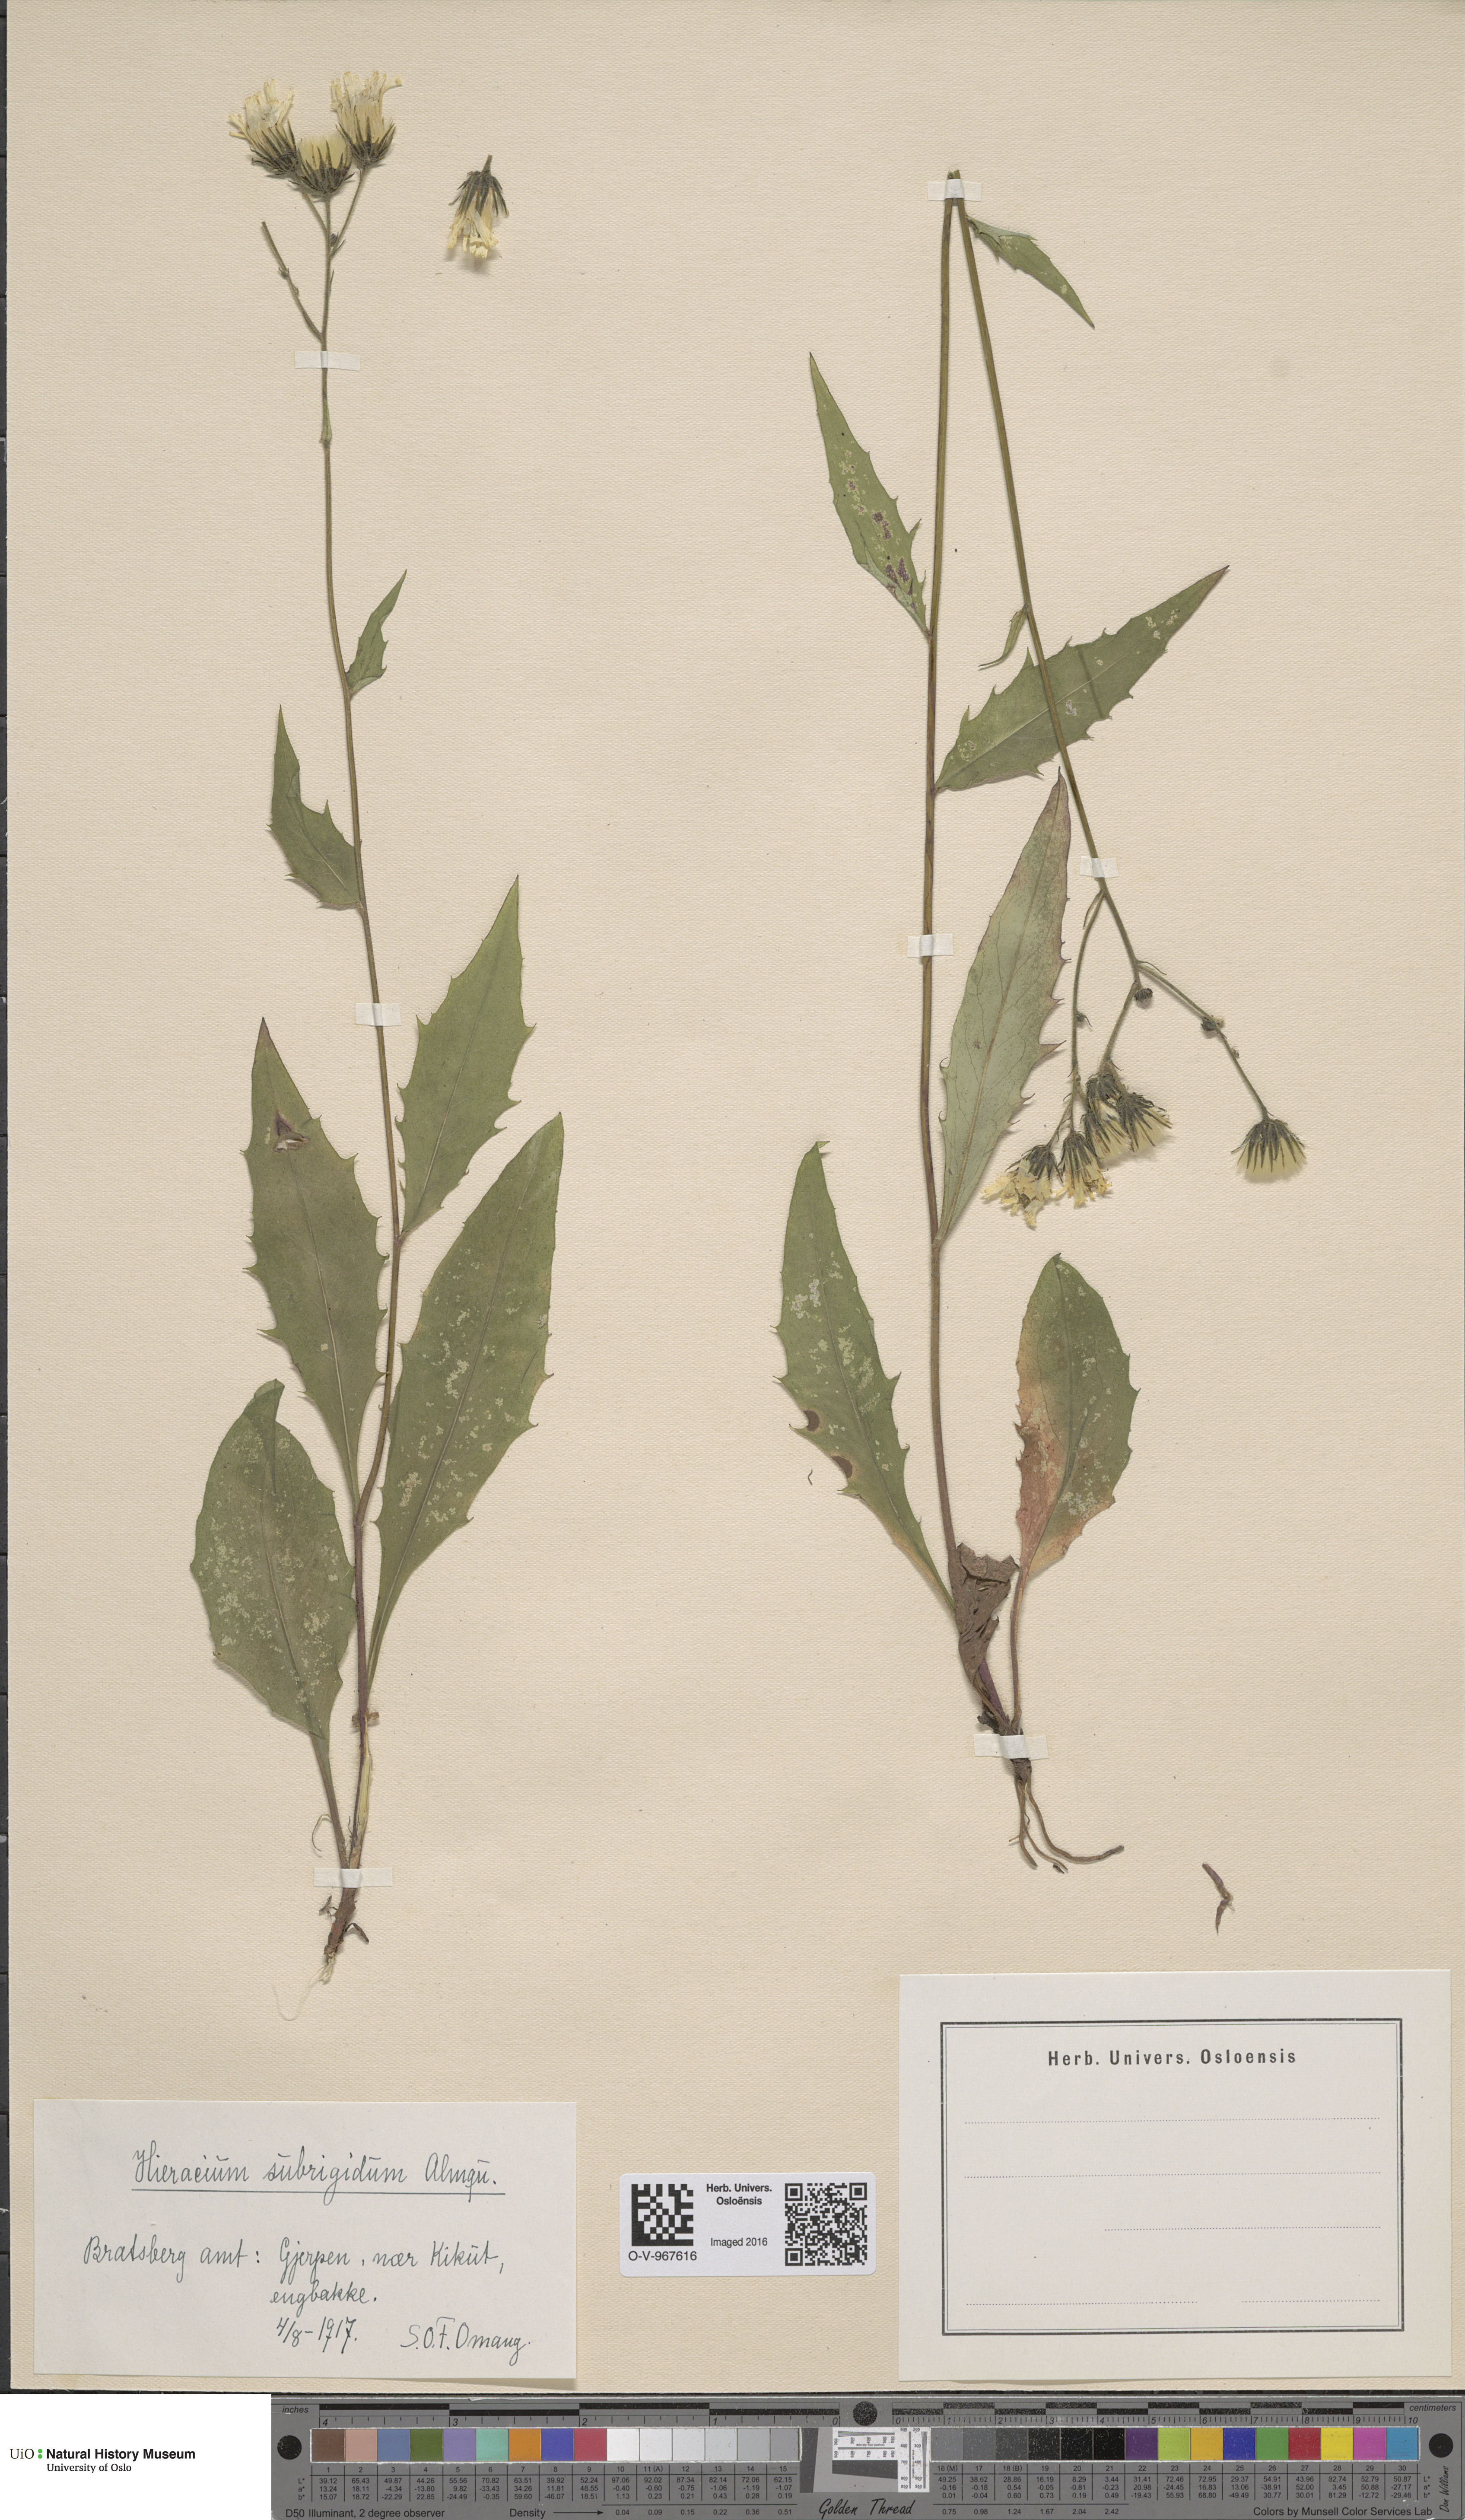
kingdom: Plantae
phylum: Tracheophyta
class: Magnoliopsida
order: Asterales
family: Asteraceae
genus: Hieracium
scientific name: Hieracium subrigidum
